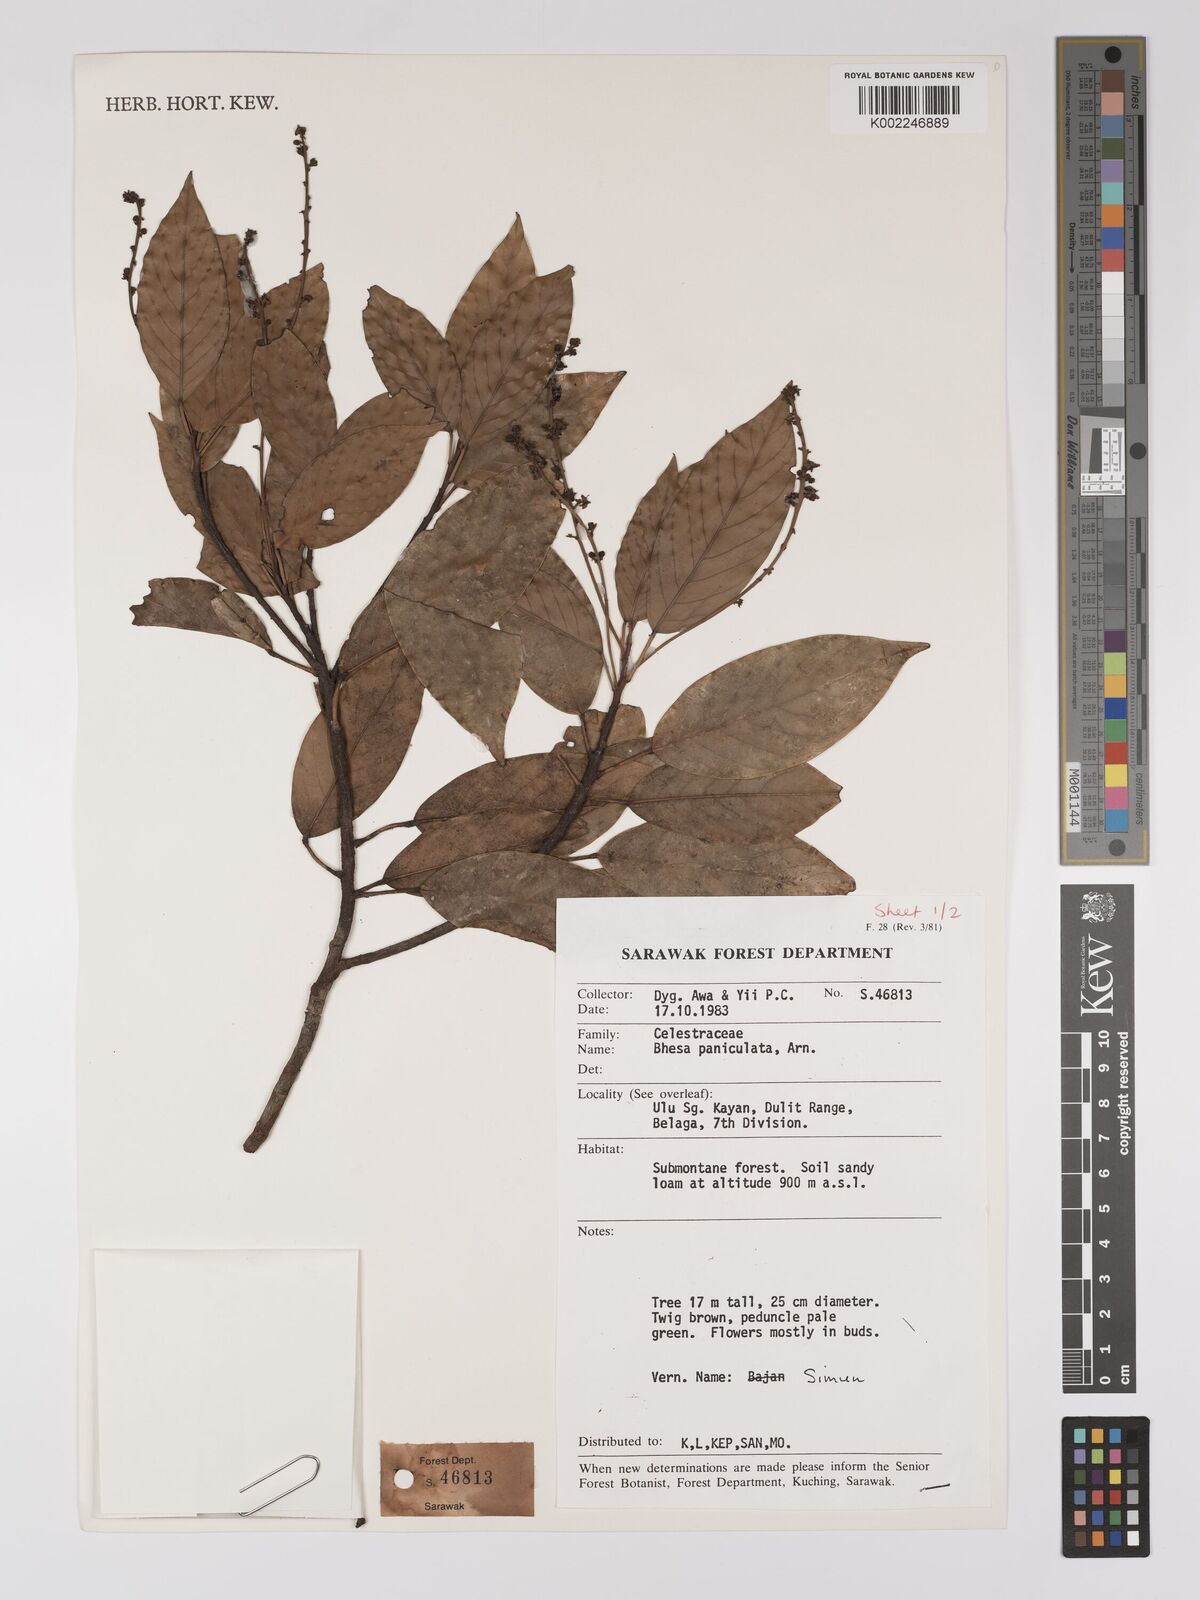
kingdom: Plantae
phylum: Tracheophyta
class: Magnoliopsida
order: Malpighiales
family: Centroplacaceae
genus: Bhesa
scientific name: Bhesa paniculata
